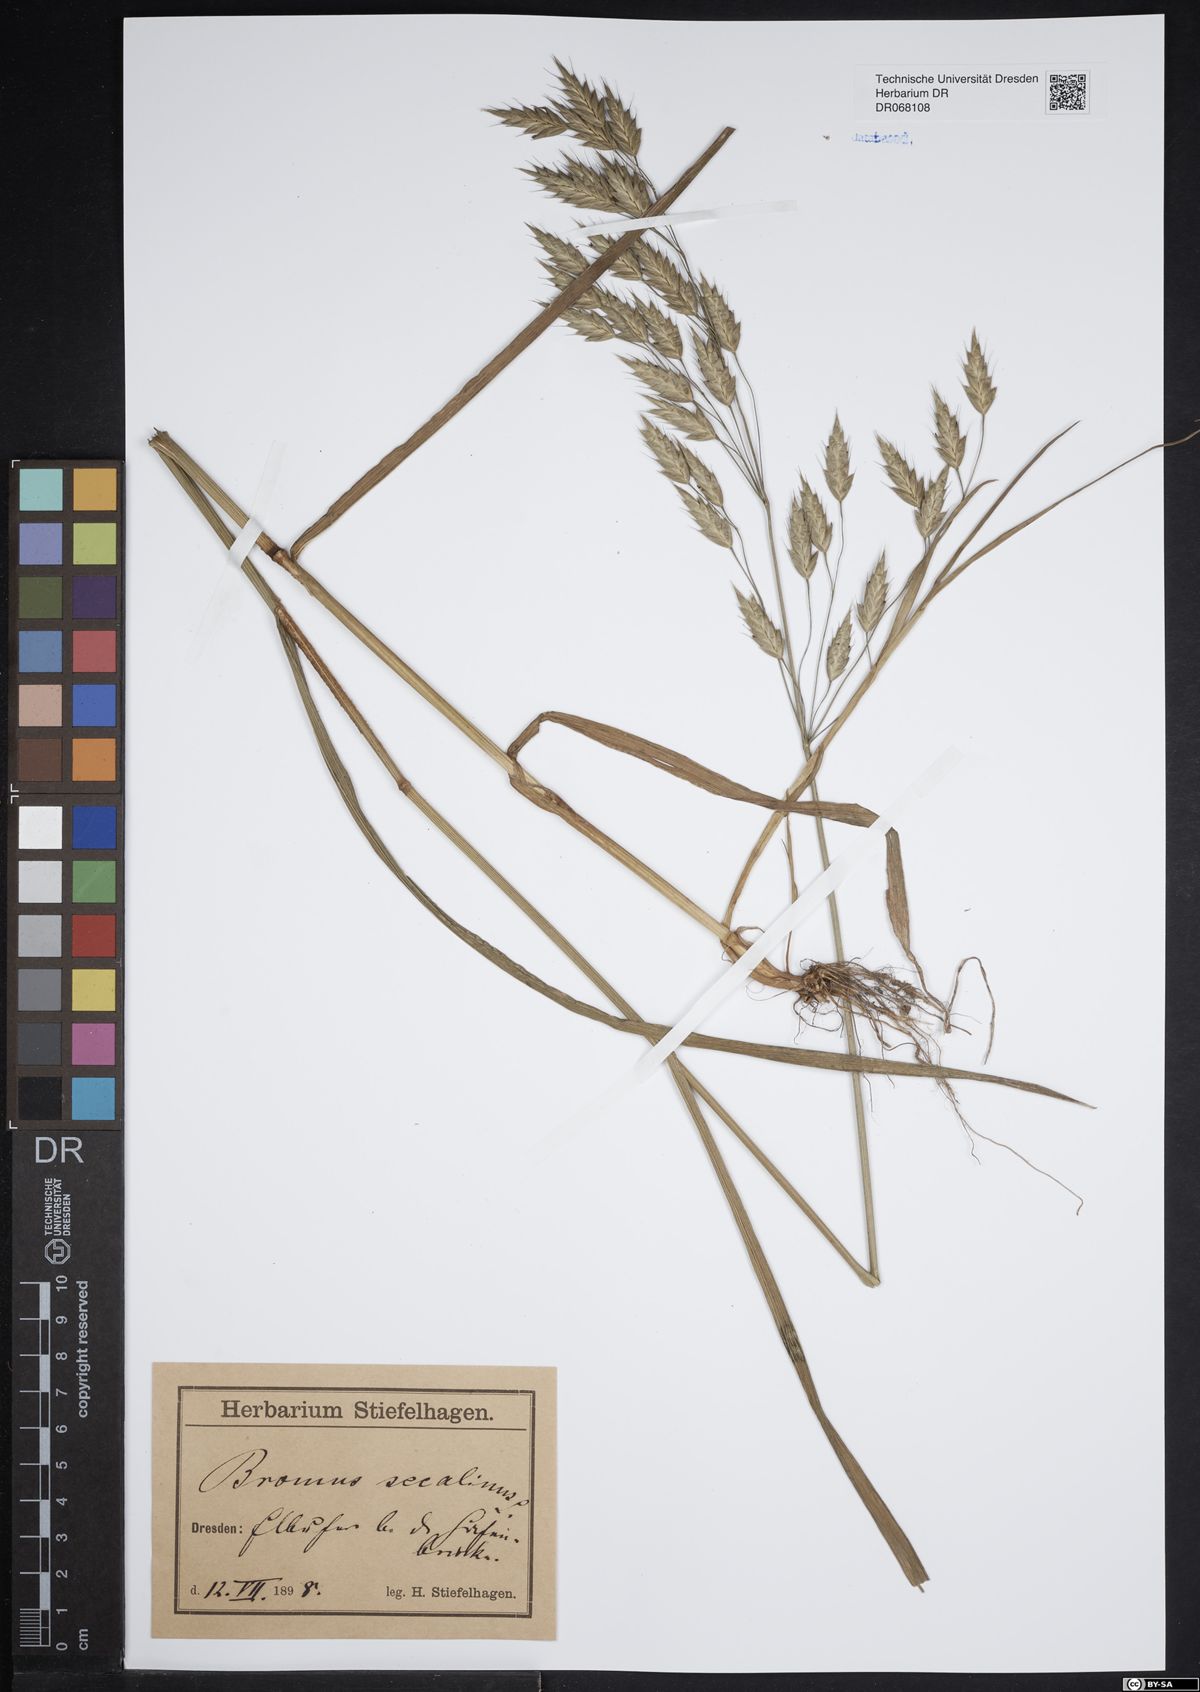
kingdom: Plantae
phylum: Tracheophyta
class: Liliopsida
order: Poales
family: Poaceae
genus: Bromus
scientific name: Bromus secalinus
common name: Rye brome
